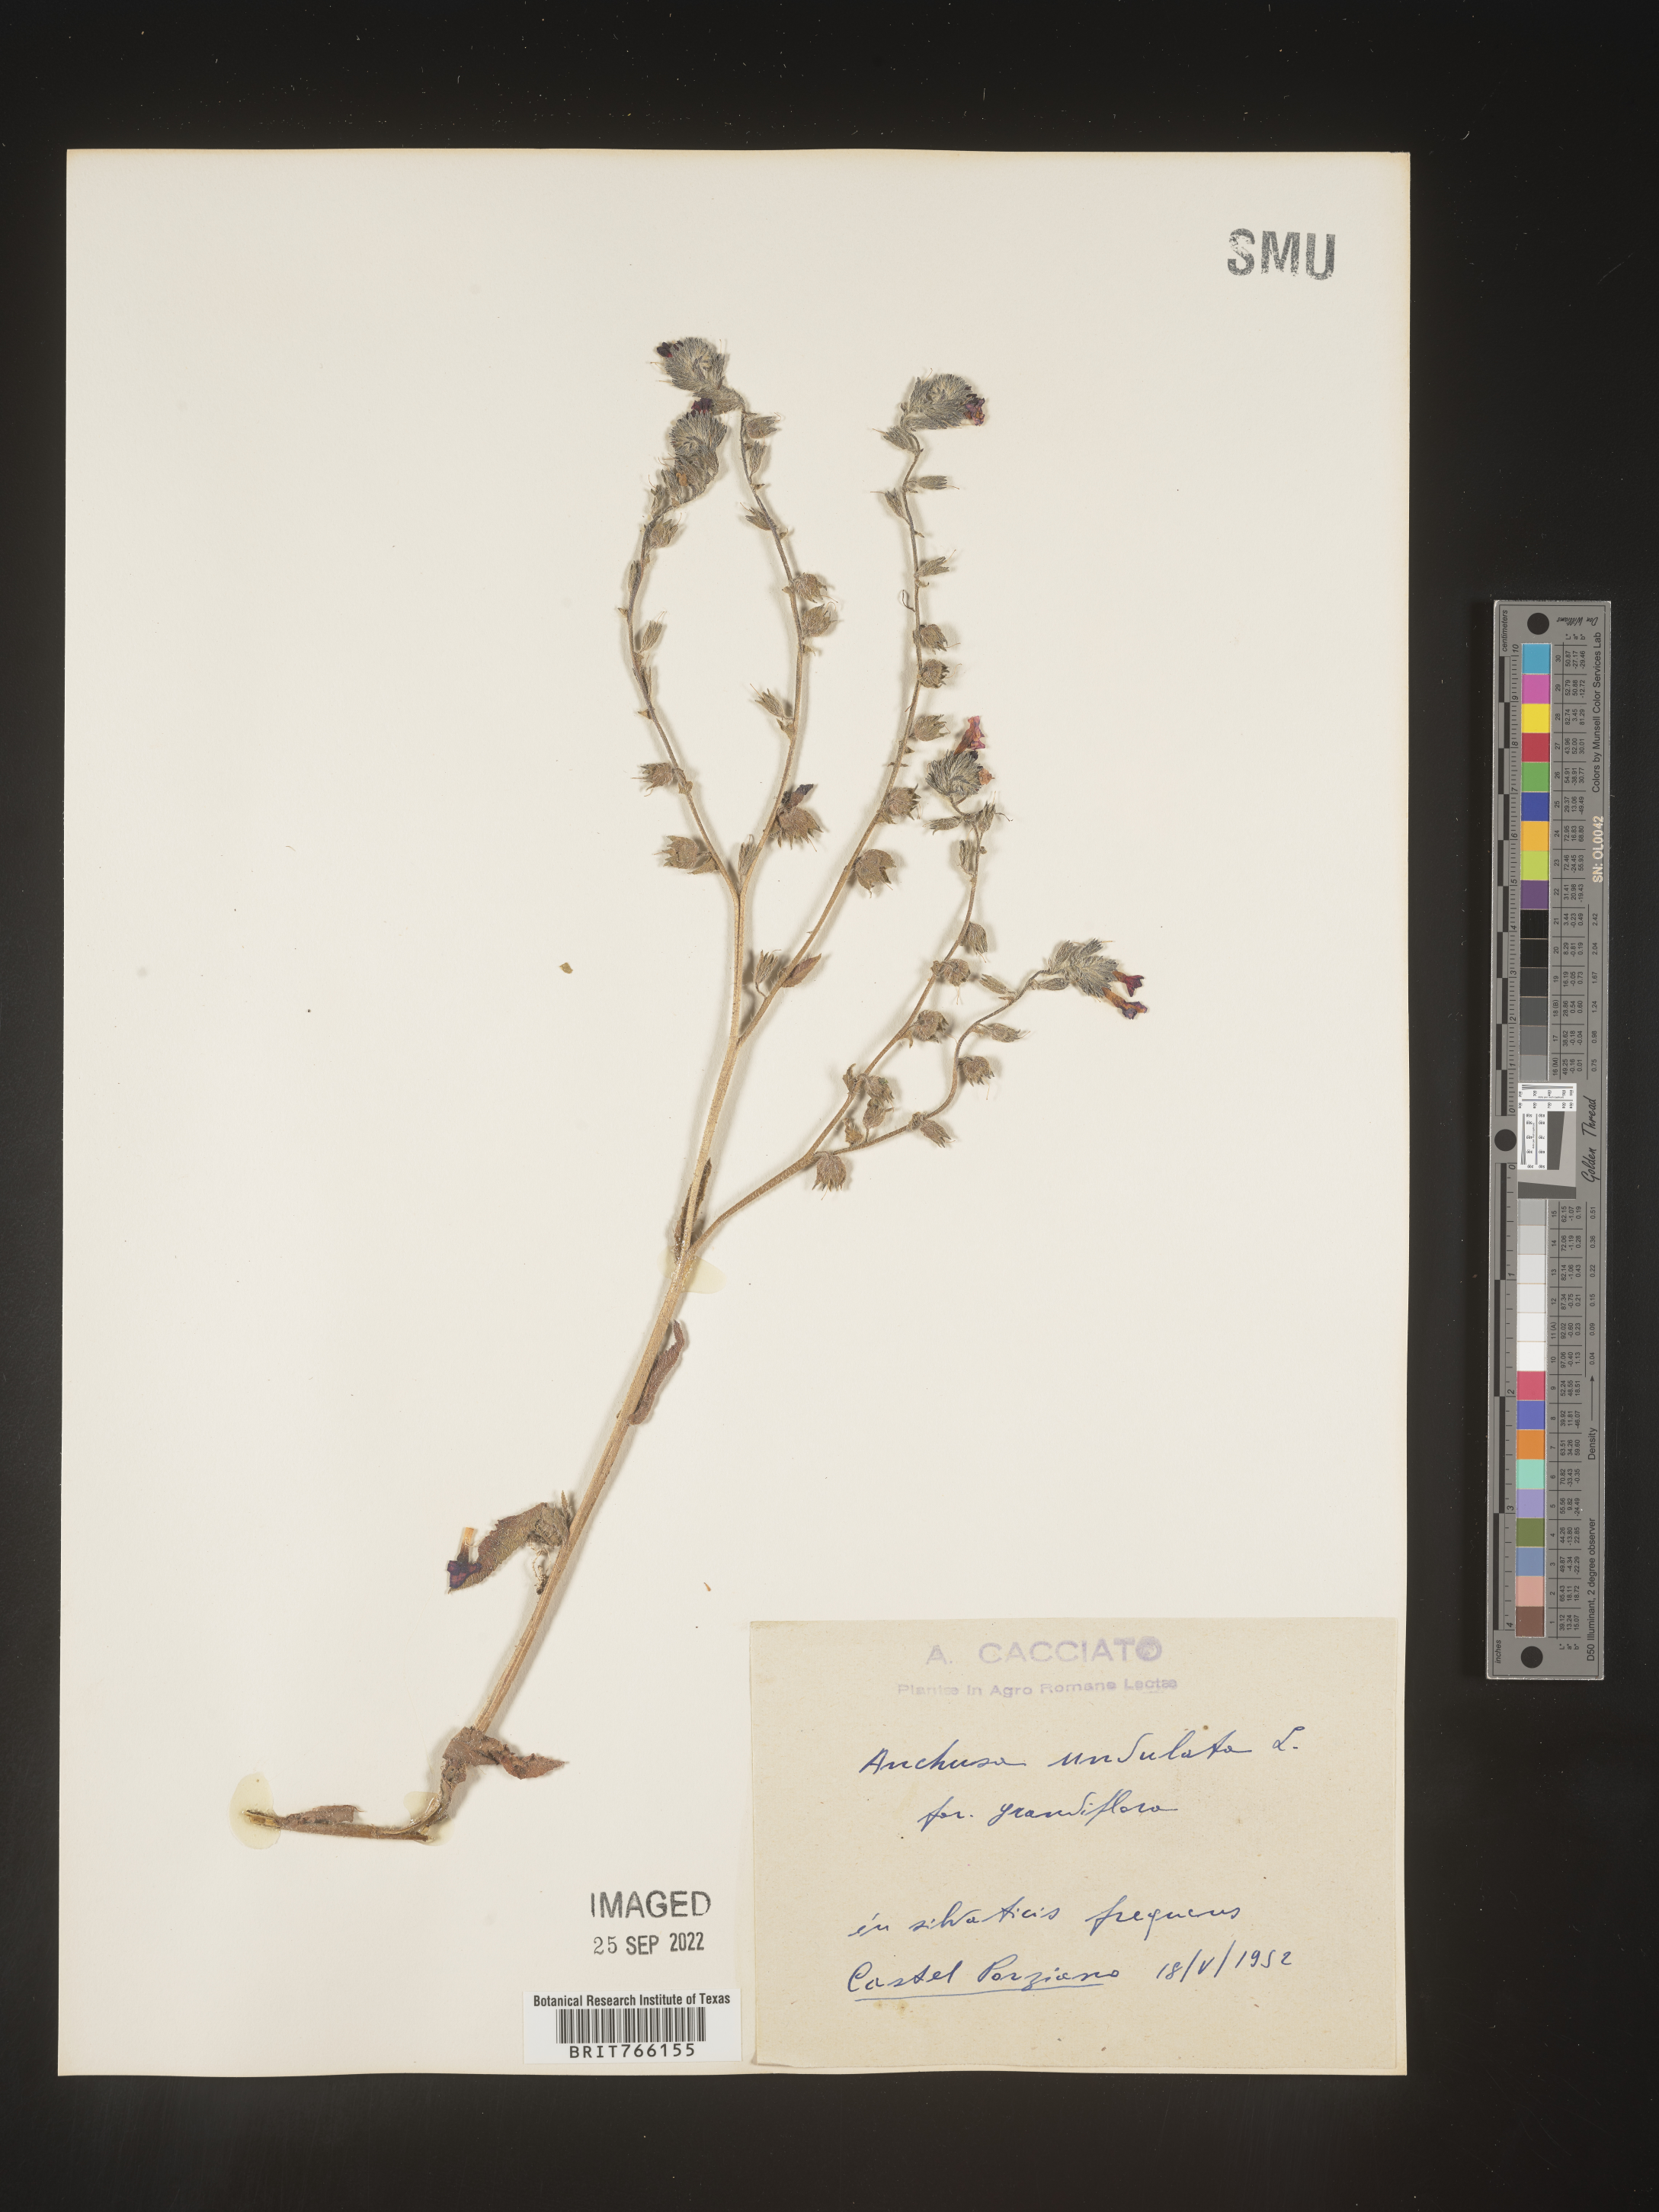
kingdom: Plantae
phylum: Tracheophyta
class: Magnoliopsida
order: Boraginales
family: Boraginaceae
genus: Anchusa
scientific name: Anchusa
